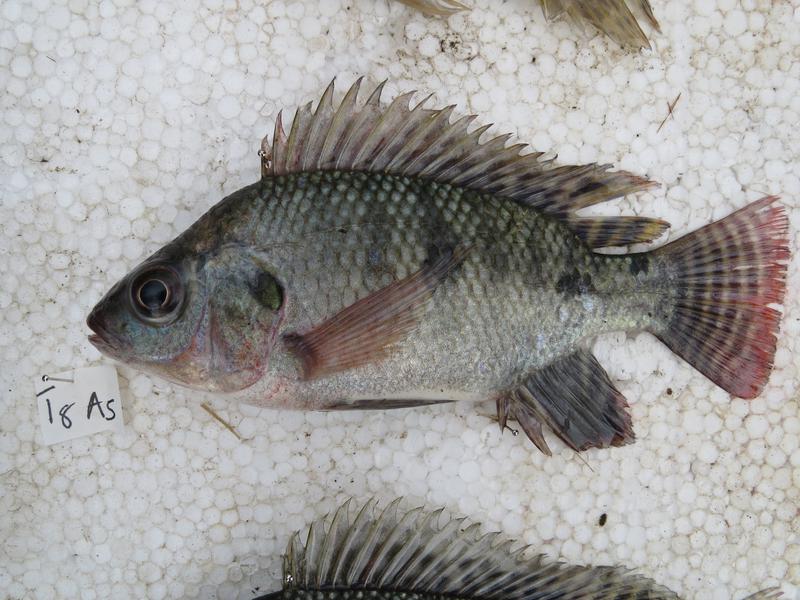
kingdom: Animalia
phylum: Chordata
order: Perciformes
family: Cichlidae
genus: Oreochromis
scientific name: Oreochromis niloticus
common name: Nile tilapia
